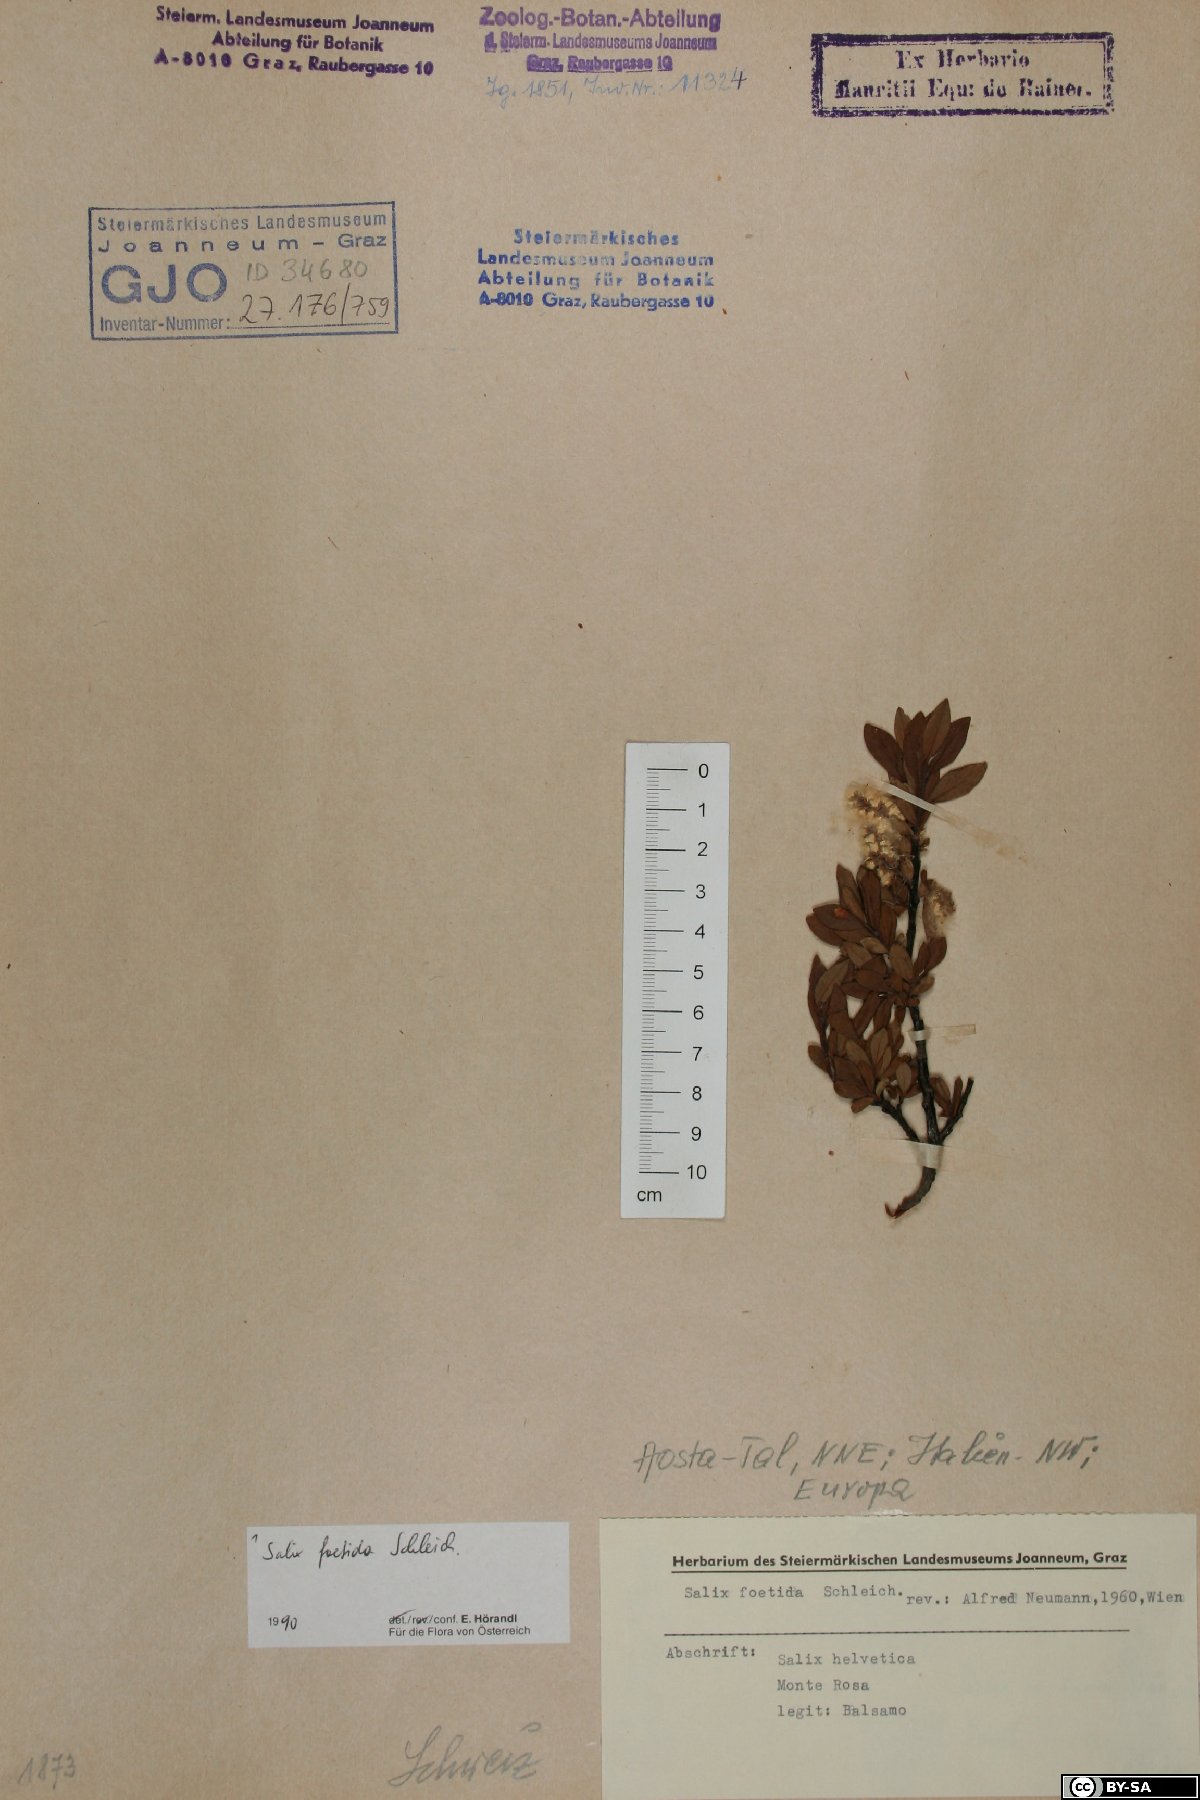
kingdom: Plantae
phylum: Tracheophyta
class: Magnoliopsida
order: Malpighiales
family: Salicaceae
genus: Salix
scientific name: Salix foetida
